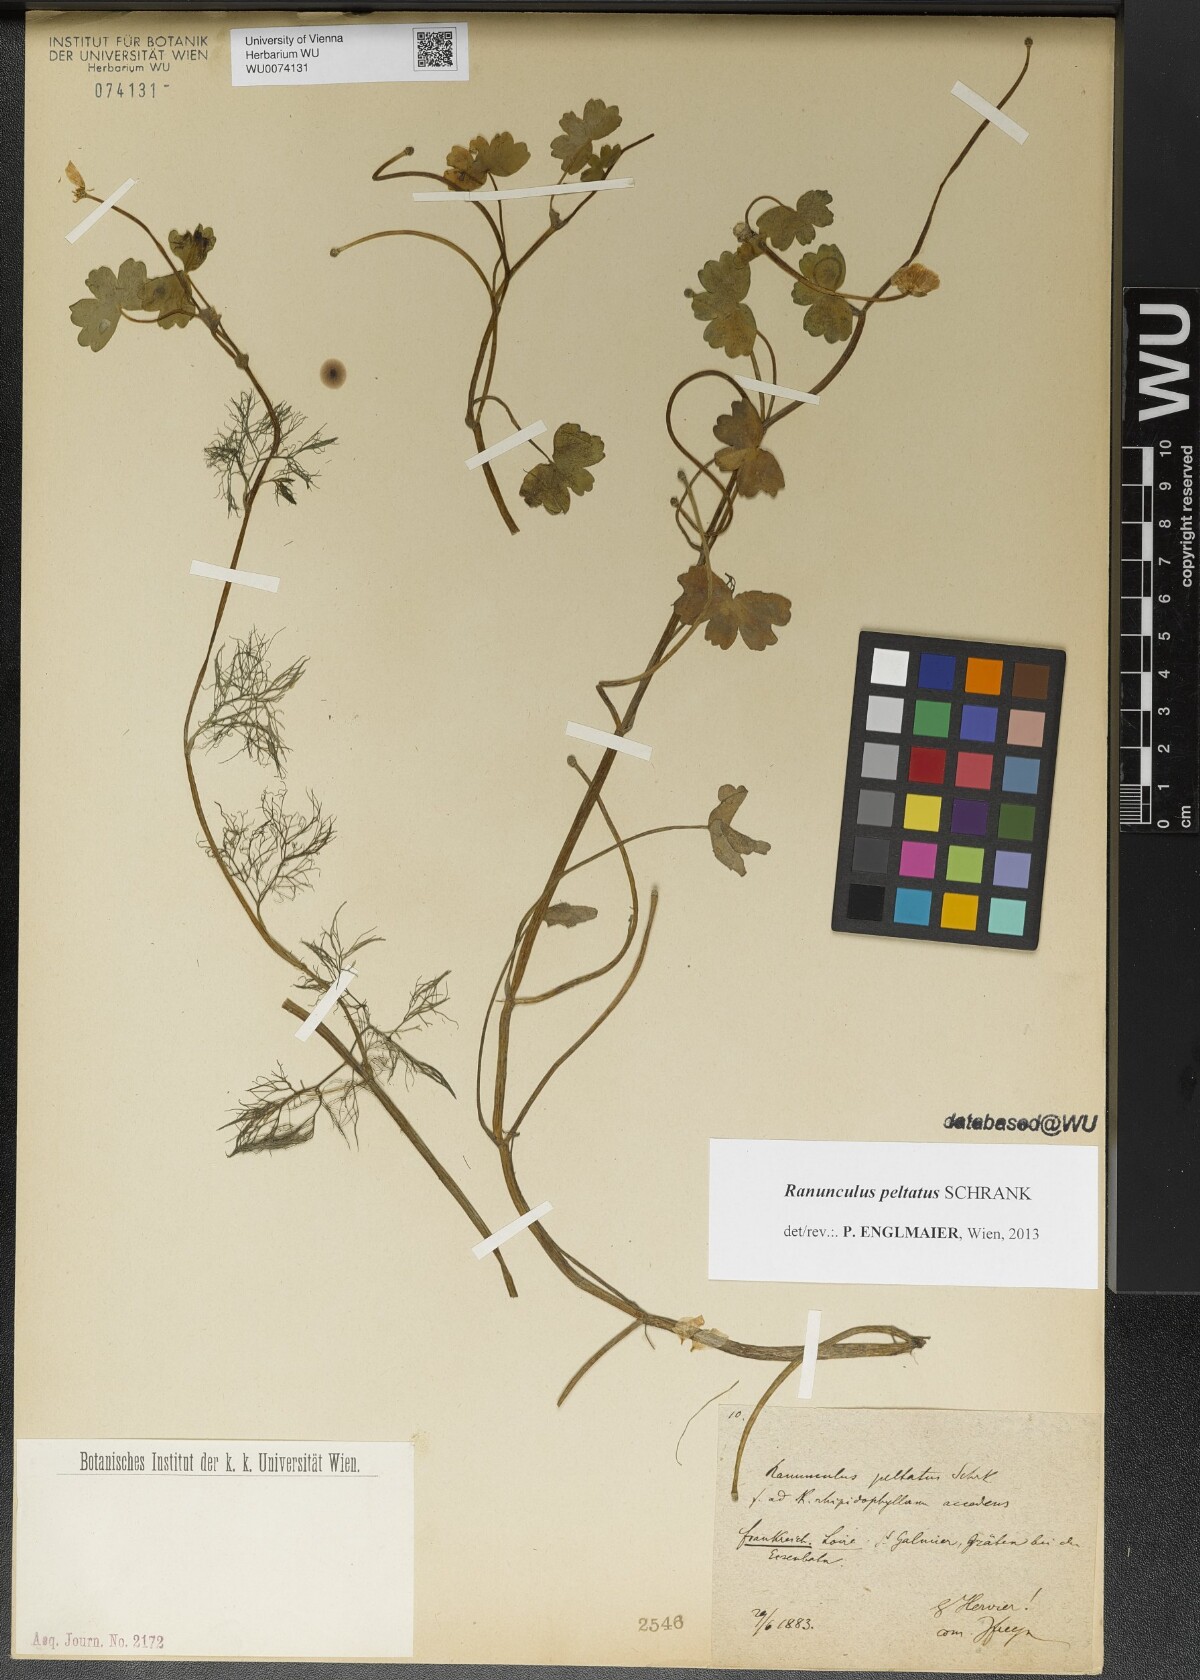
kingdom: Plantae
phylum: Tracheophyta
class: Magnoliopsida
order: Ranunculales
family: Ranunculaceae
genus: Ranunculus
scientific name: Ranunculus peltatus
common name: Pond water-crowfoot
